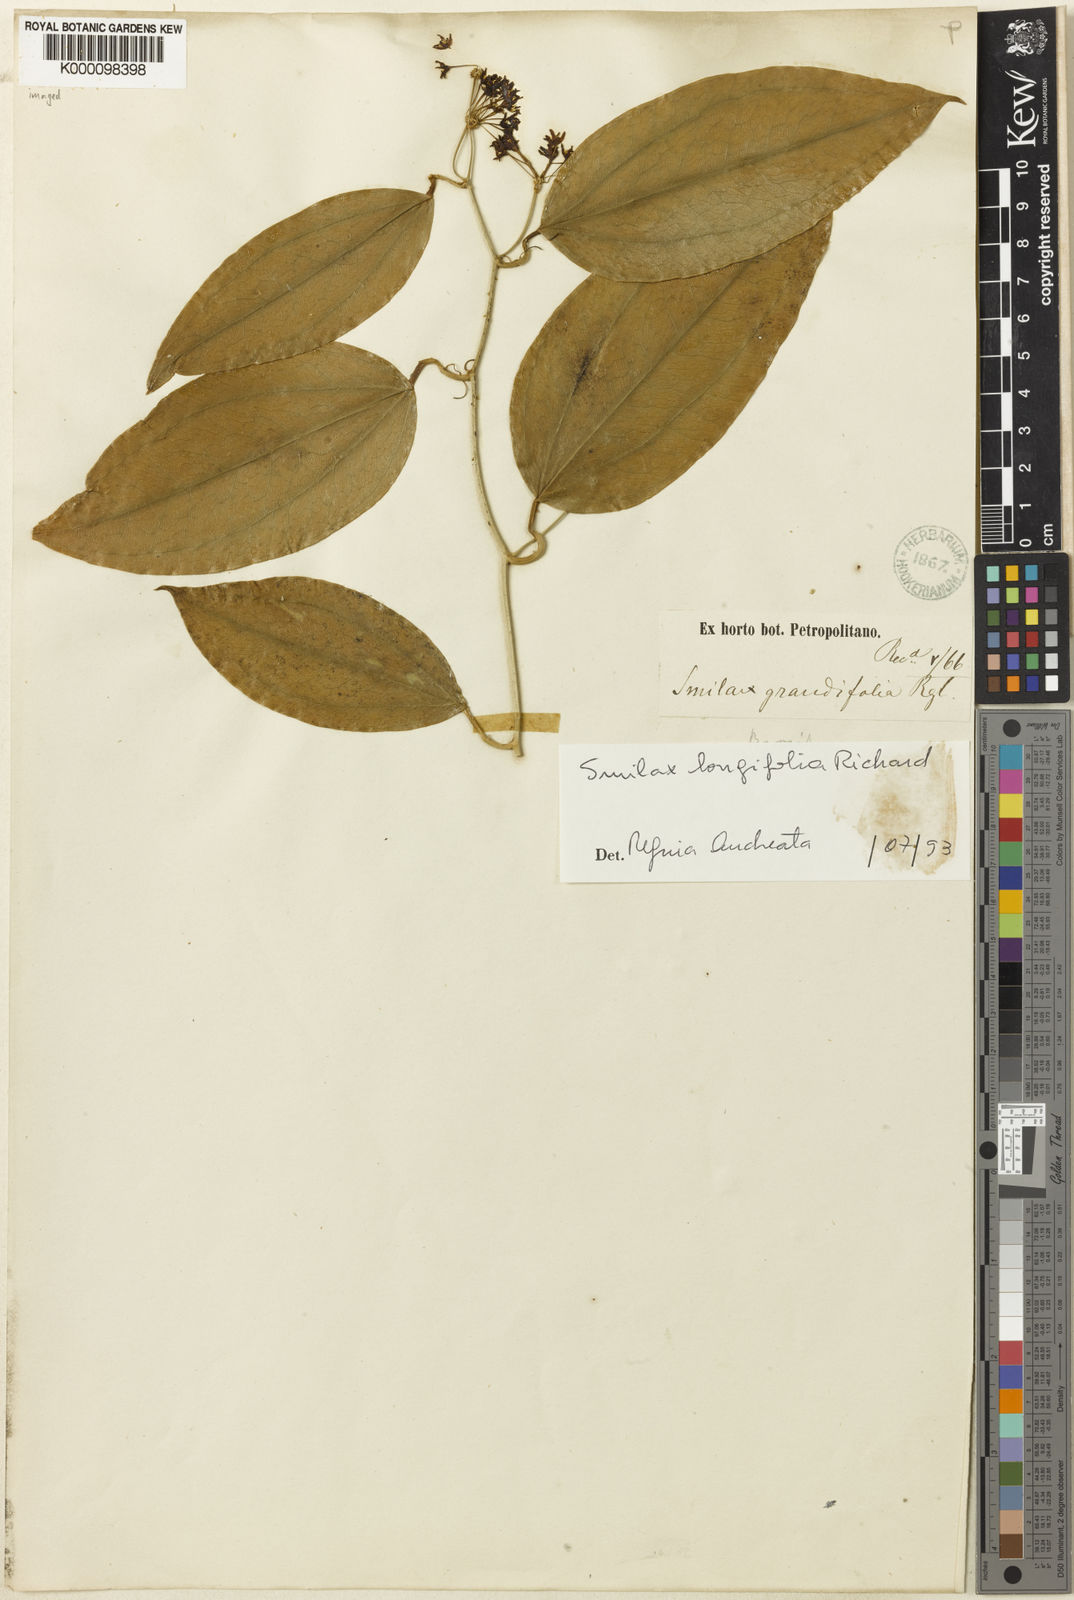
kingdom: Plantae
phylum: Tracheophyta
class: Liliopsida
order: Liliales
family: Smilacaceae
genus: Smilax
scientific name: Smilax longifolia
